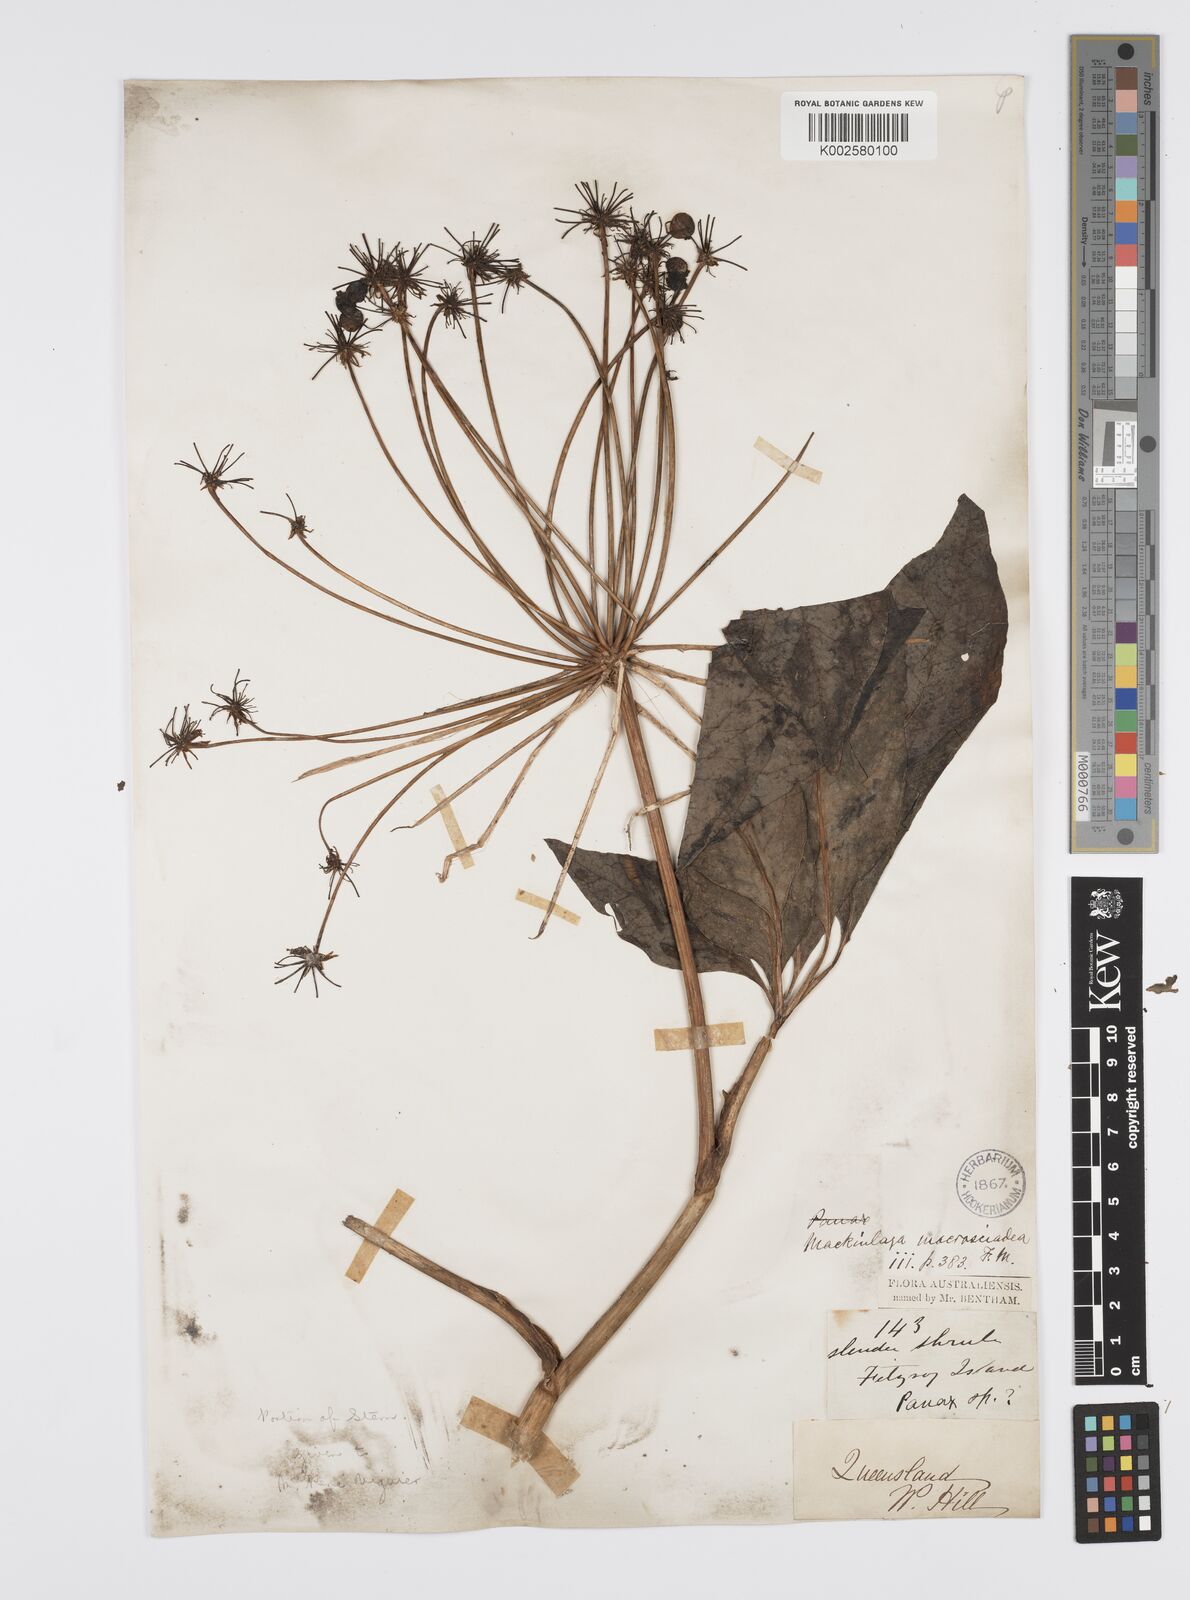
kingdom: Plantae
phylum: Tracheophyta
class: Magnoliopsida
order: Apiales
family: Apiaceae
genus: Mackinlaya
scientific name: Mackinlaya macrosciadea
